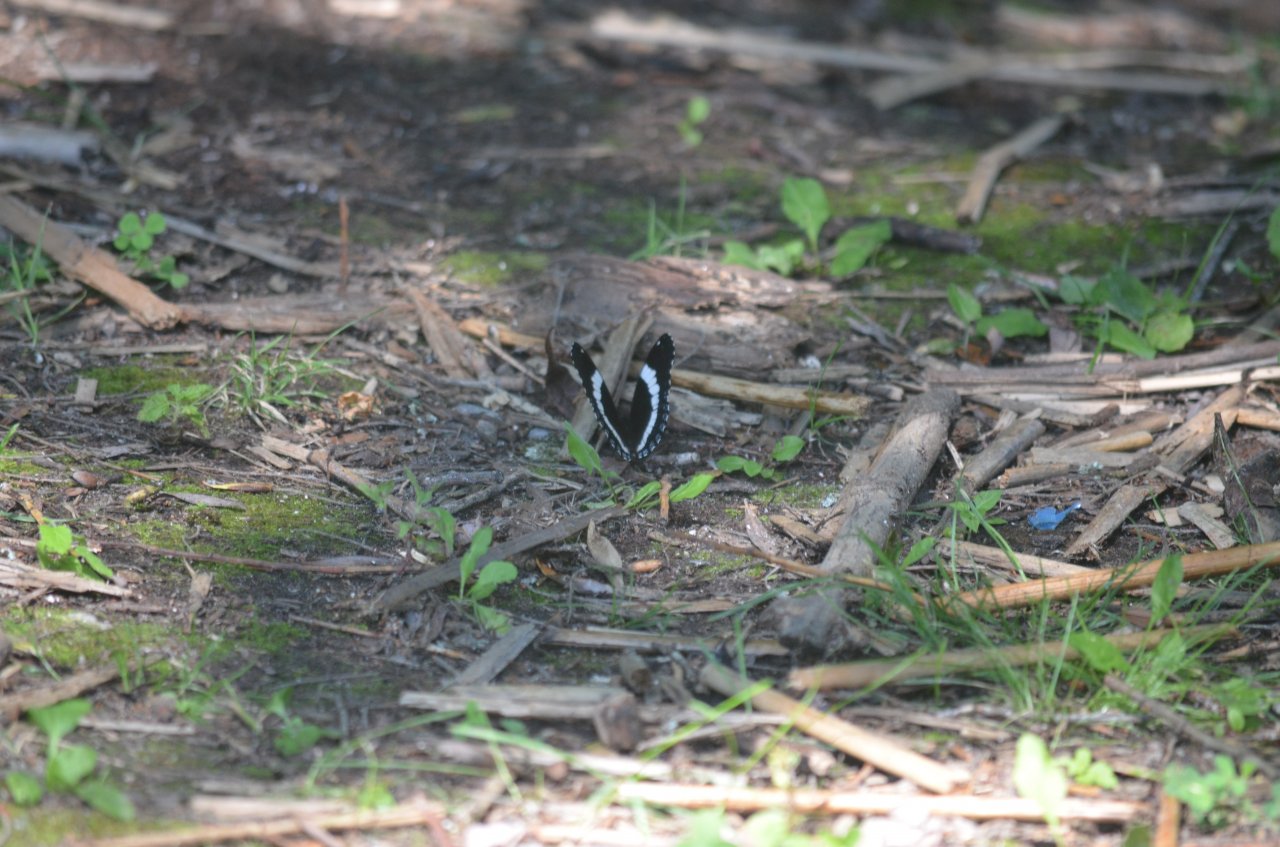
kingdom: Animalia
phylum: Arthropoda
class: Insecta
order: Lepidoptera
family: Nymphalidae
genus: Limenitis
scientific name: Limenitis arthemis
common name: Red-spotted Admiral
